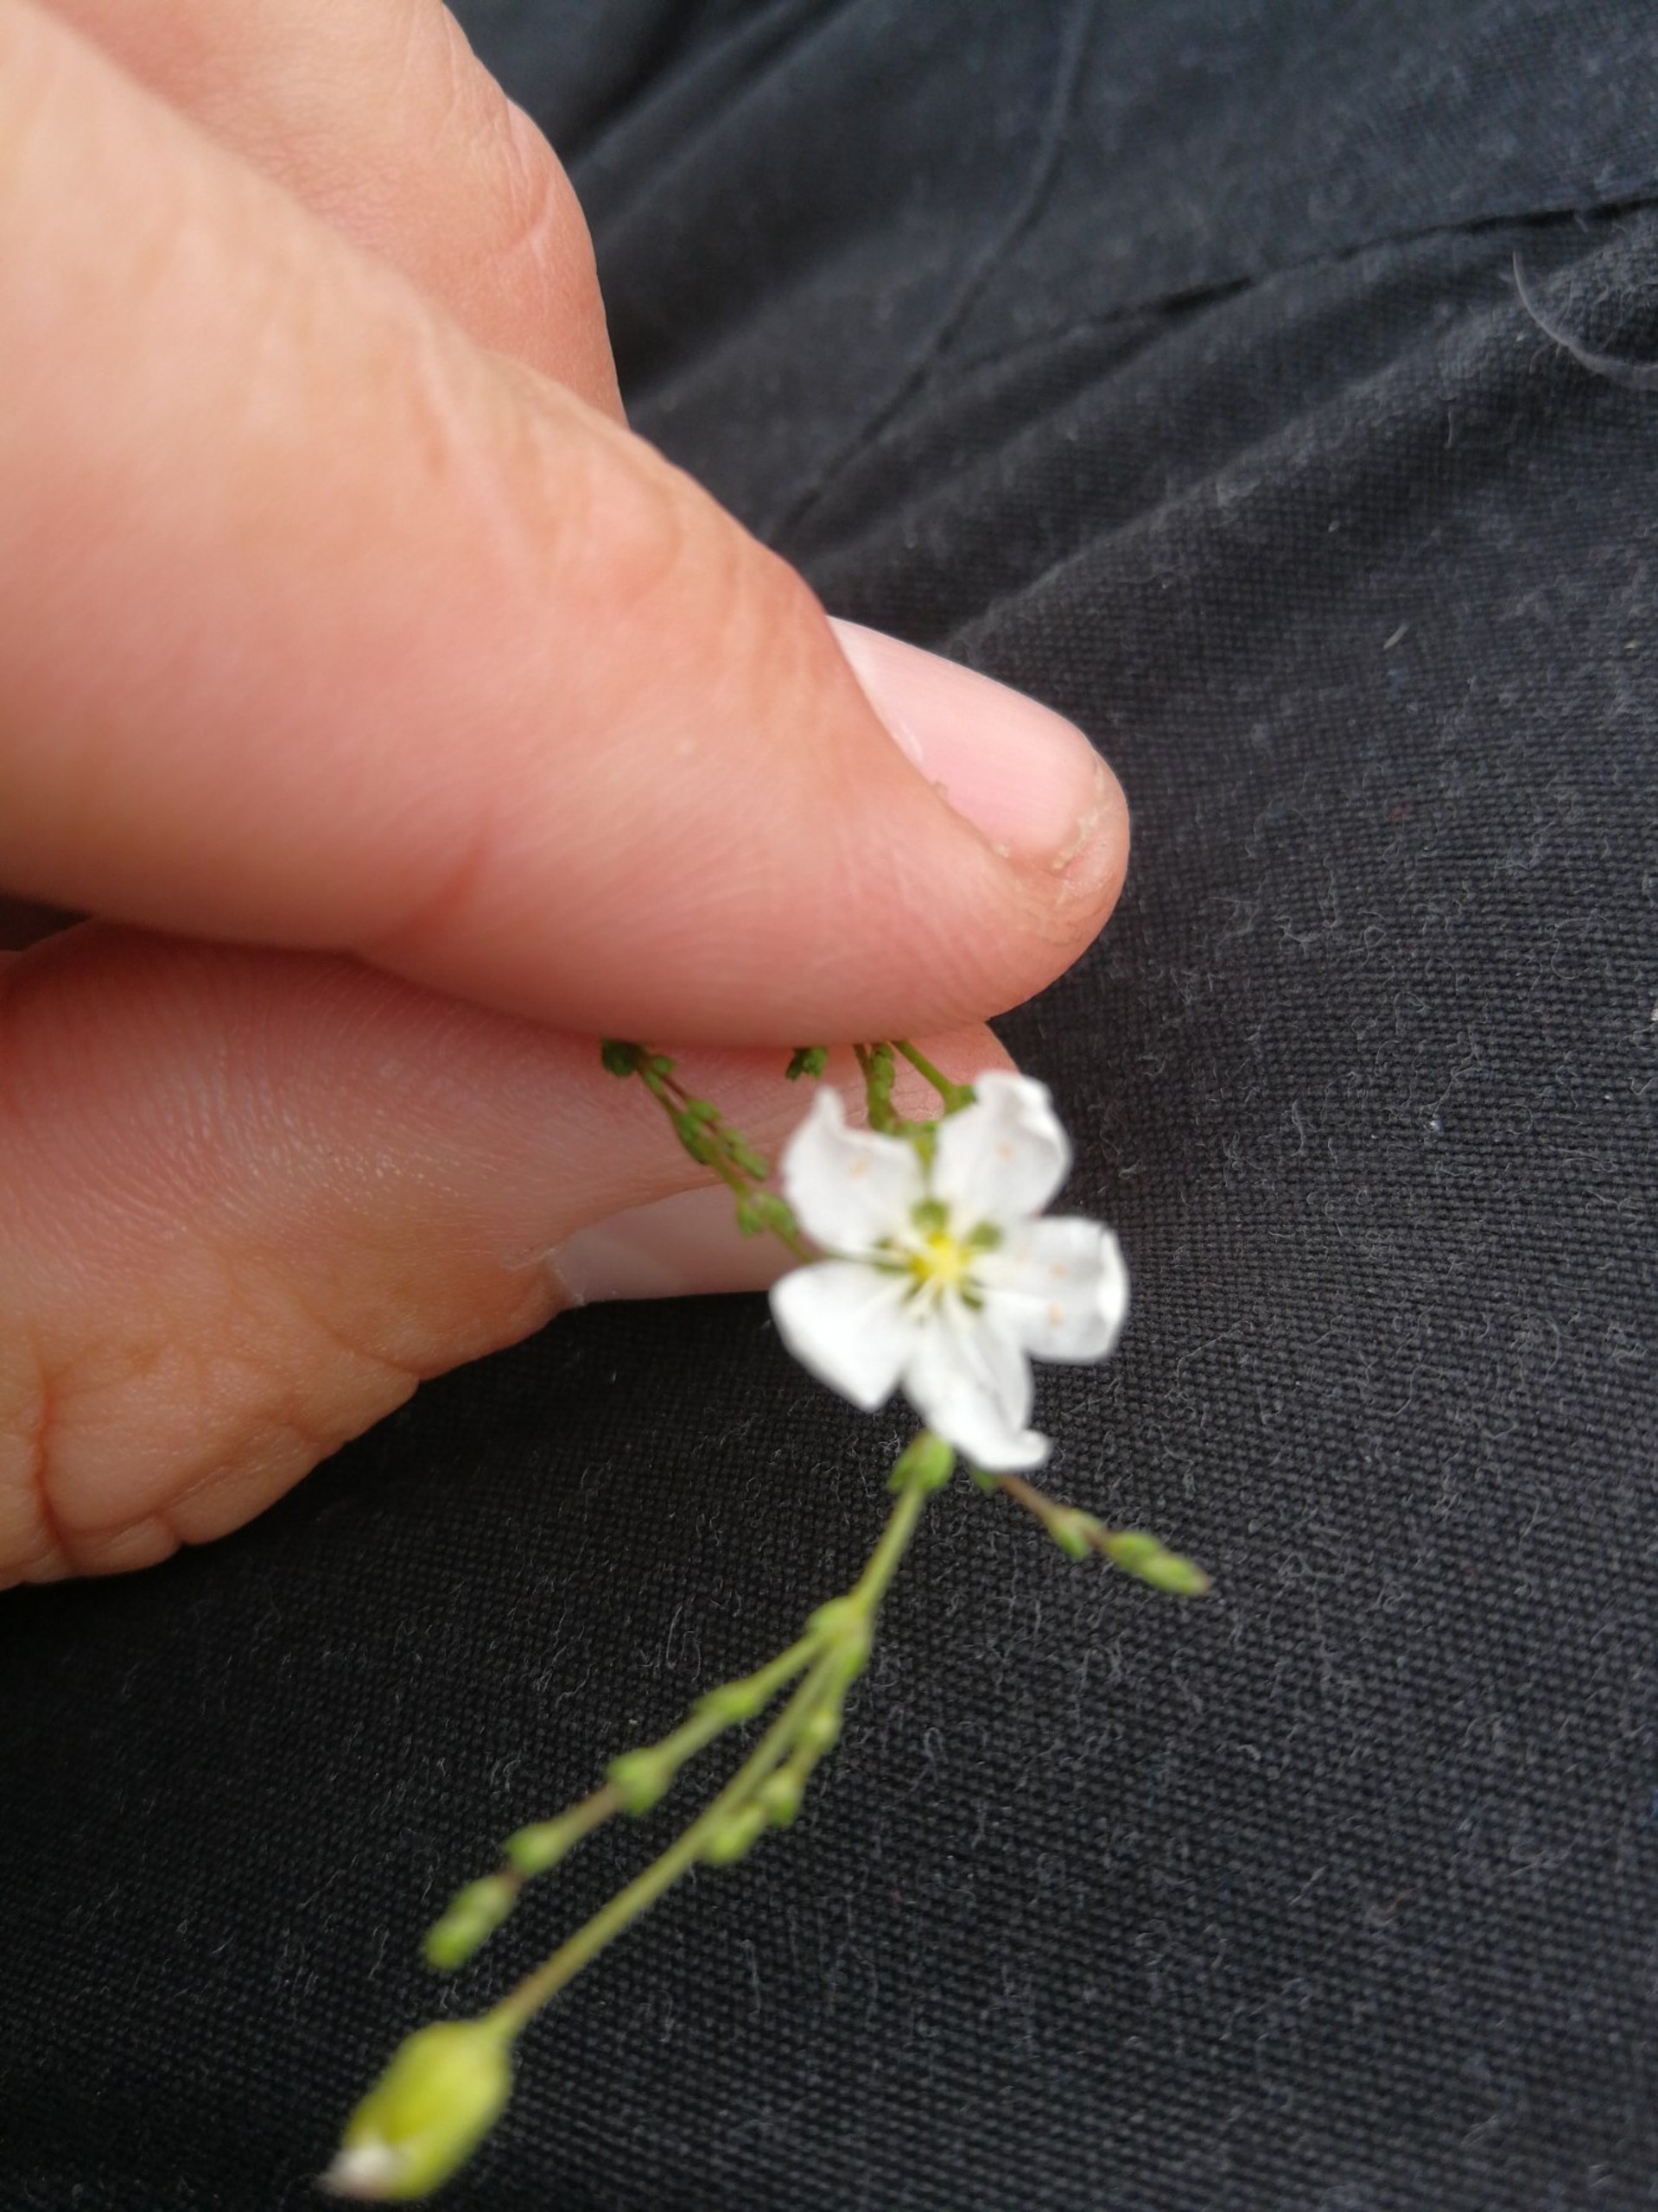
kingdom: Plantae
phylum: Tracheophyta
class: Magnoliopsida
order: Caryophyllales
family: Caryophyllaceae
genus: Sagina
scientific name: Sagina nodosa
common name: Knude-firling
